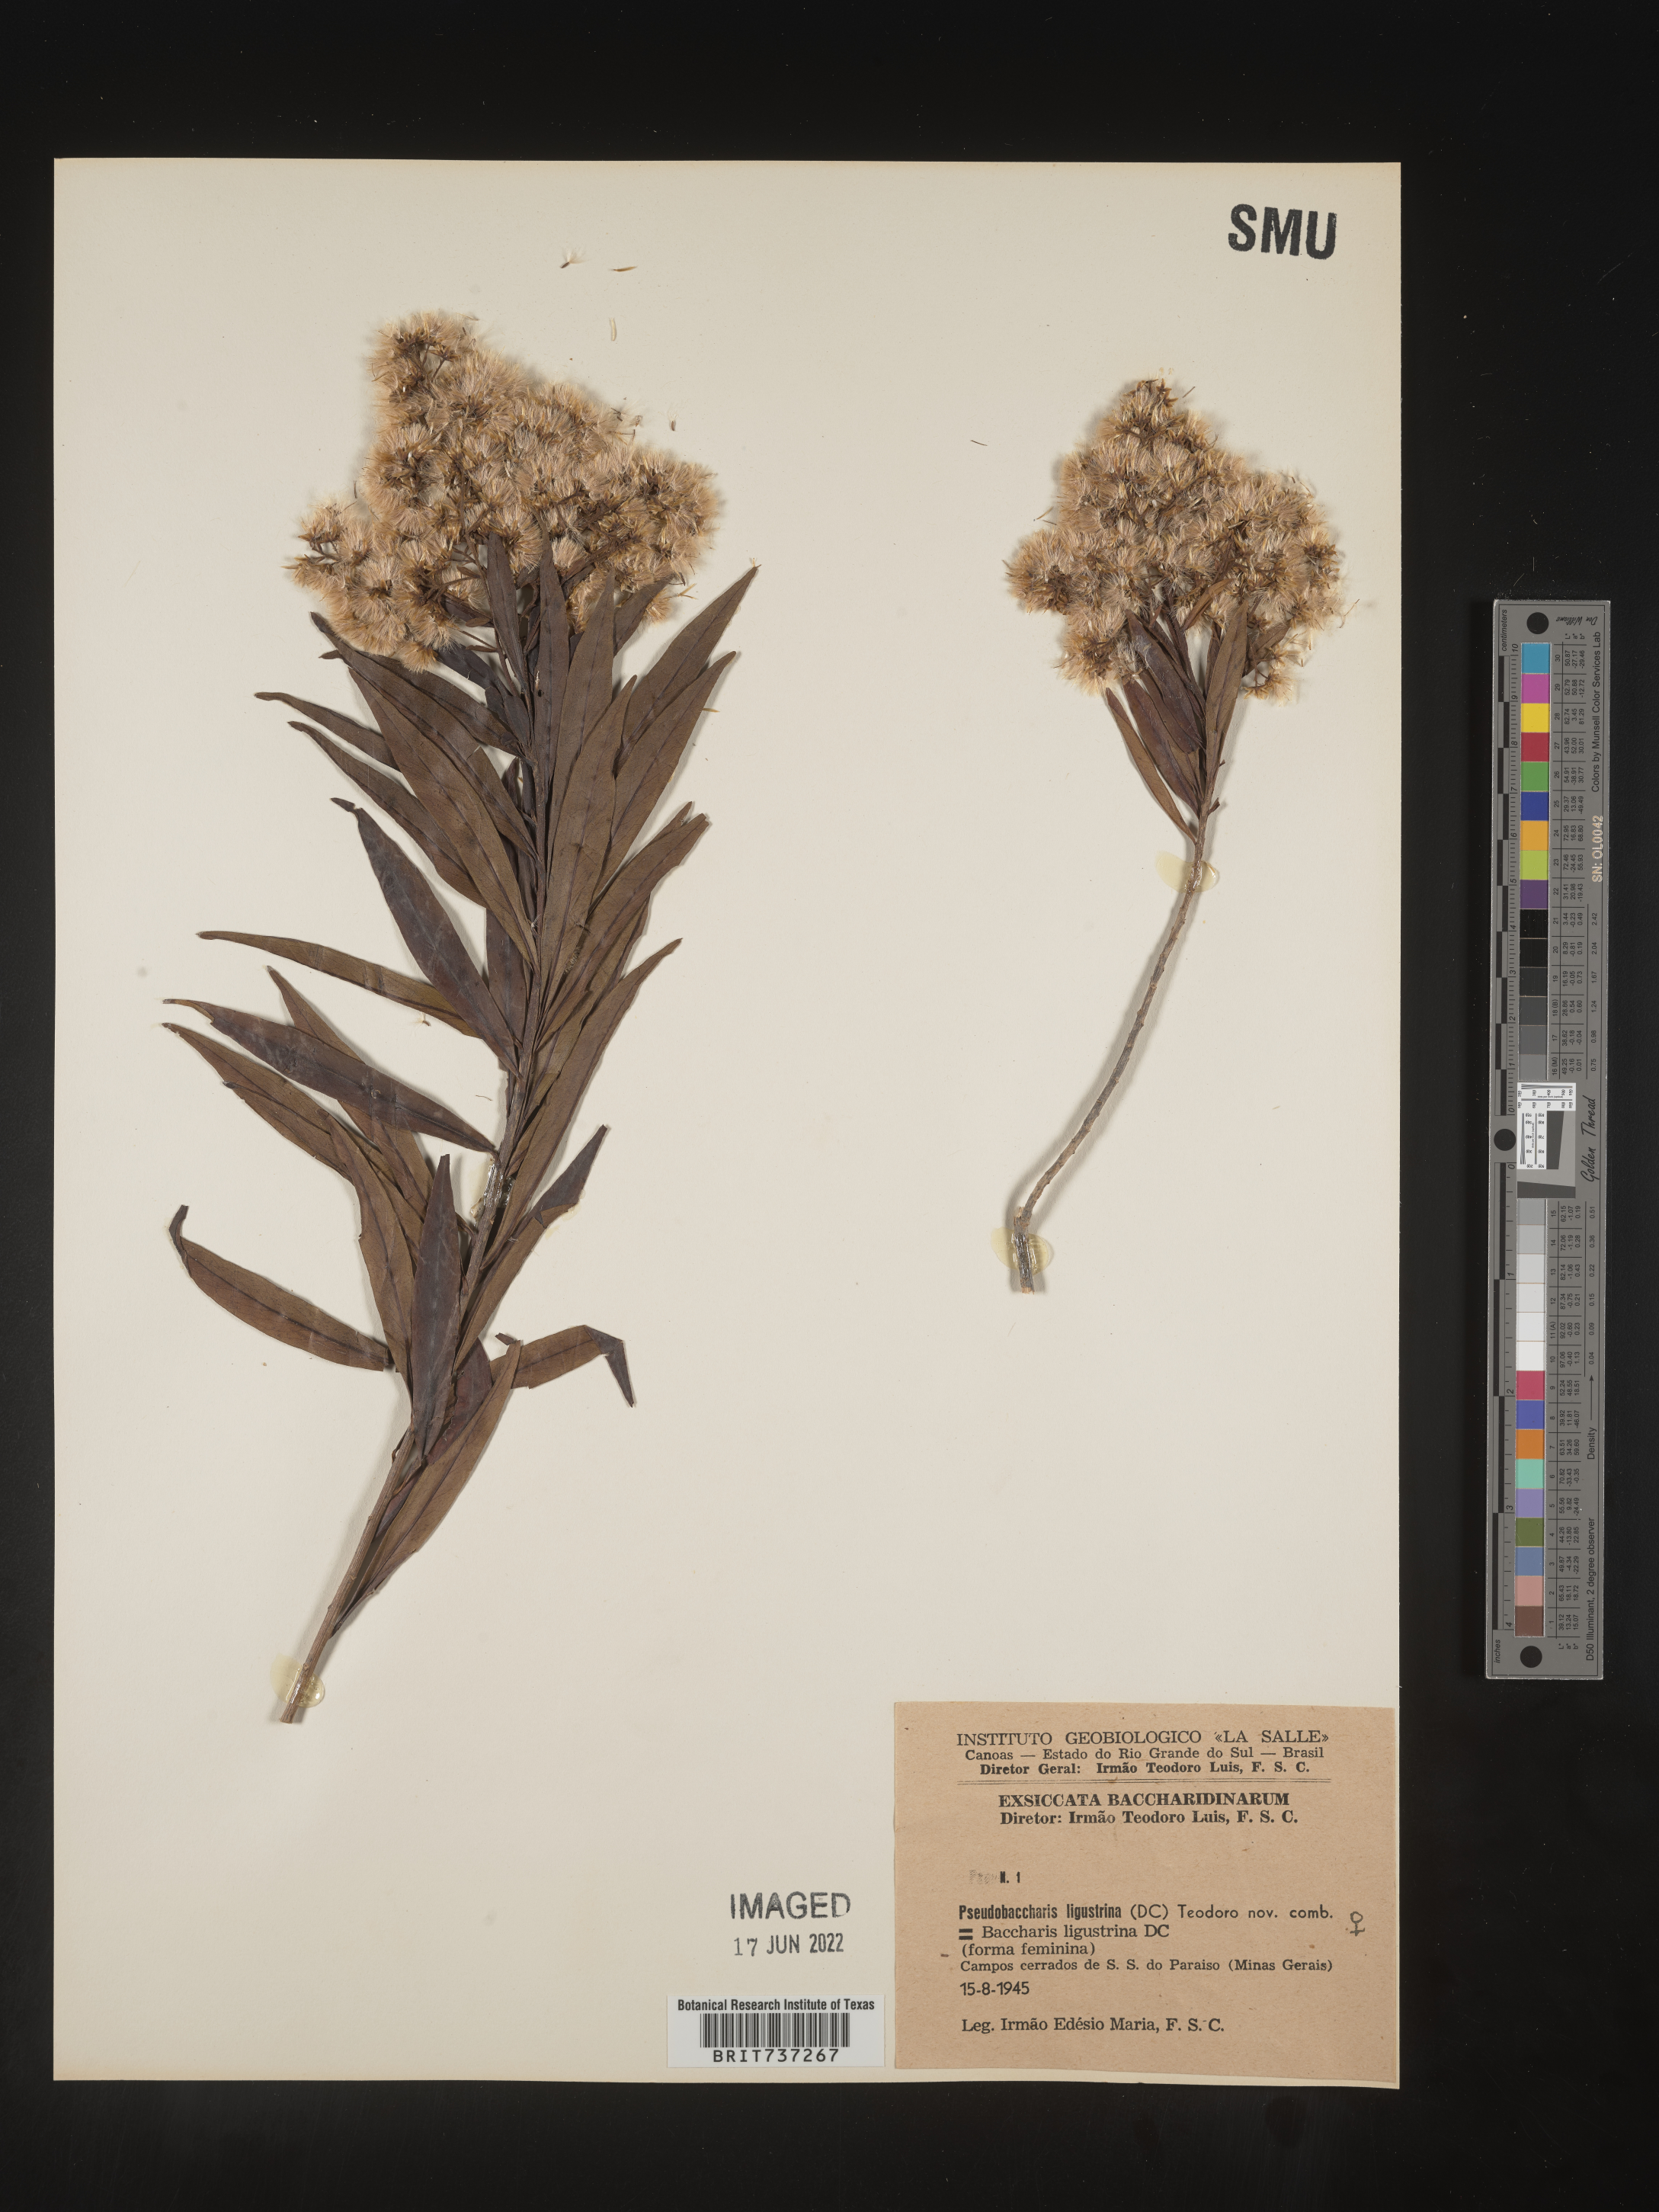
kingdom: Plantae
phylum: Tracheophyta
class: Magnoliopsida
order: Asterales
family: Asteraceae
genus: Pseudobaccharis
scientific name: Pseudobaccharis
